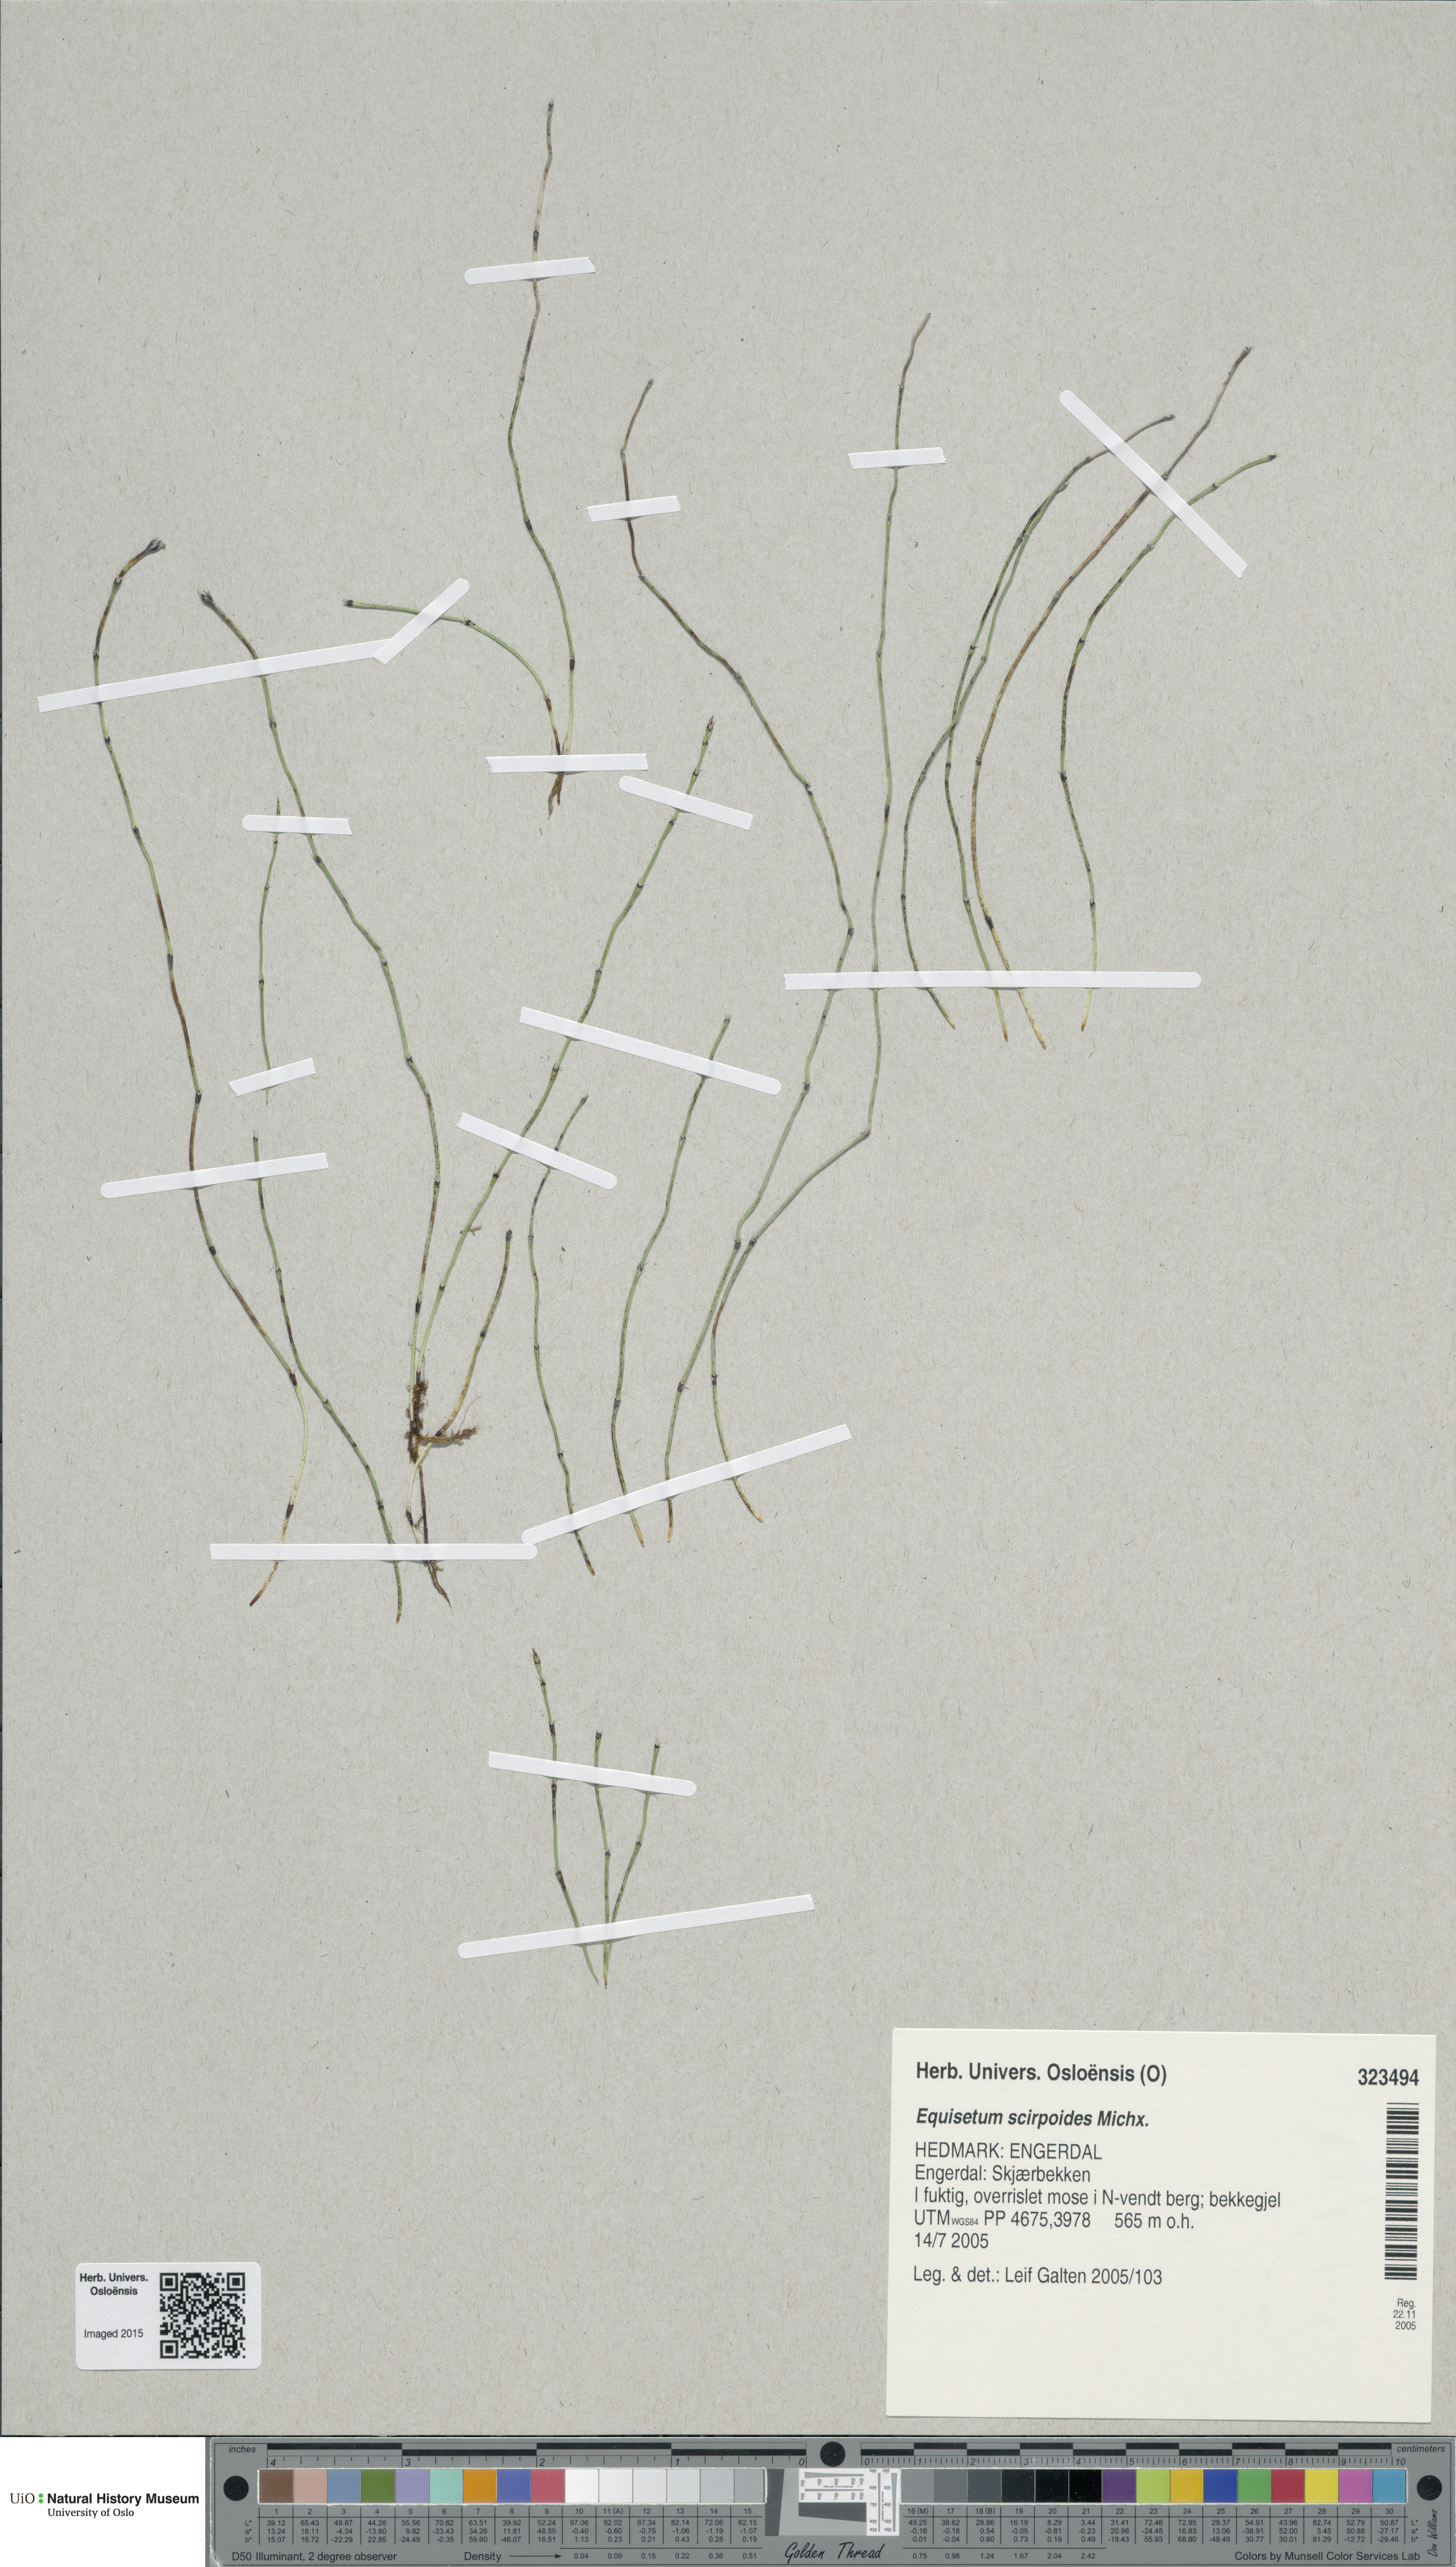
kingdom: Plantae
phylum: Tracheophyta
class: Polypodiopsida
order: Equisetales
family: Equisetaceae
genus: Equisetum
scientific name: Equisetum scirpoides
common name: Delicate horsetail
